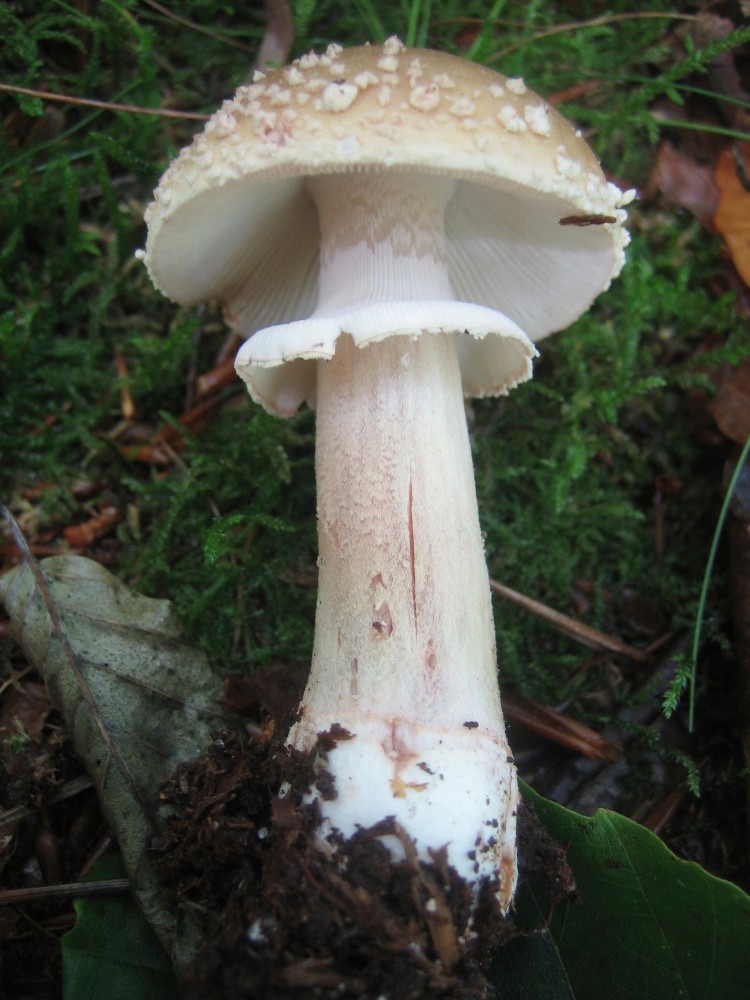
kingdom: Fungi
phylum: Basidiomycota
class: Agaricomycetes
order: Agaricales
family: Amanitaceae
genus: Amanita
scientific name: Amanita rubescens
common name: rødmende fluesvamp
